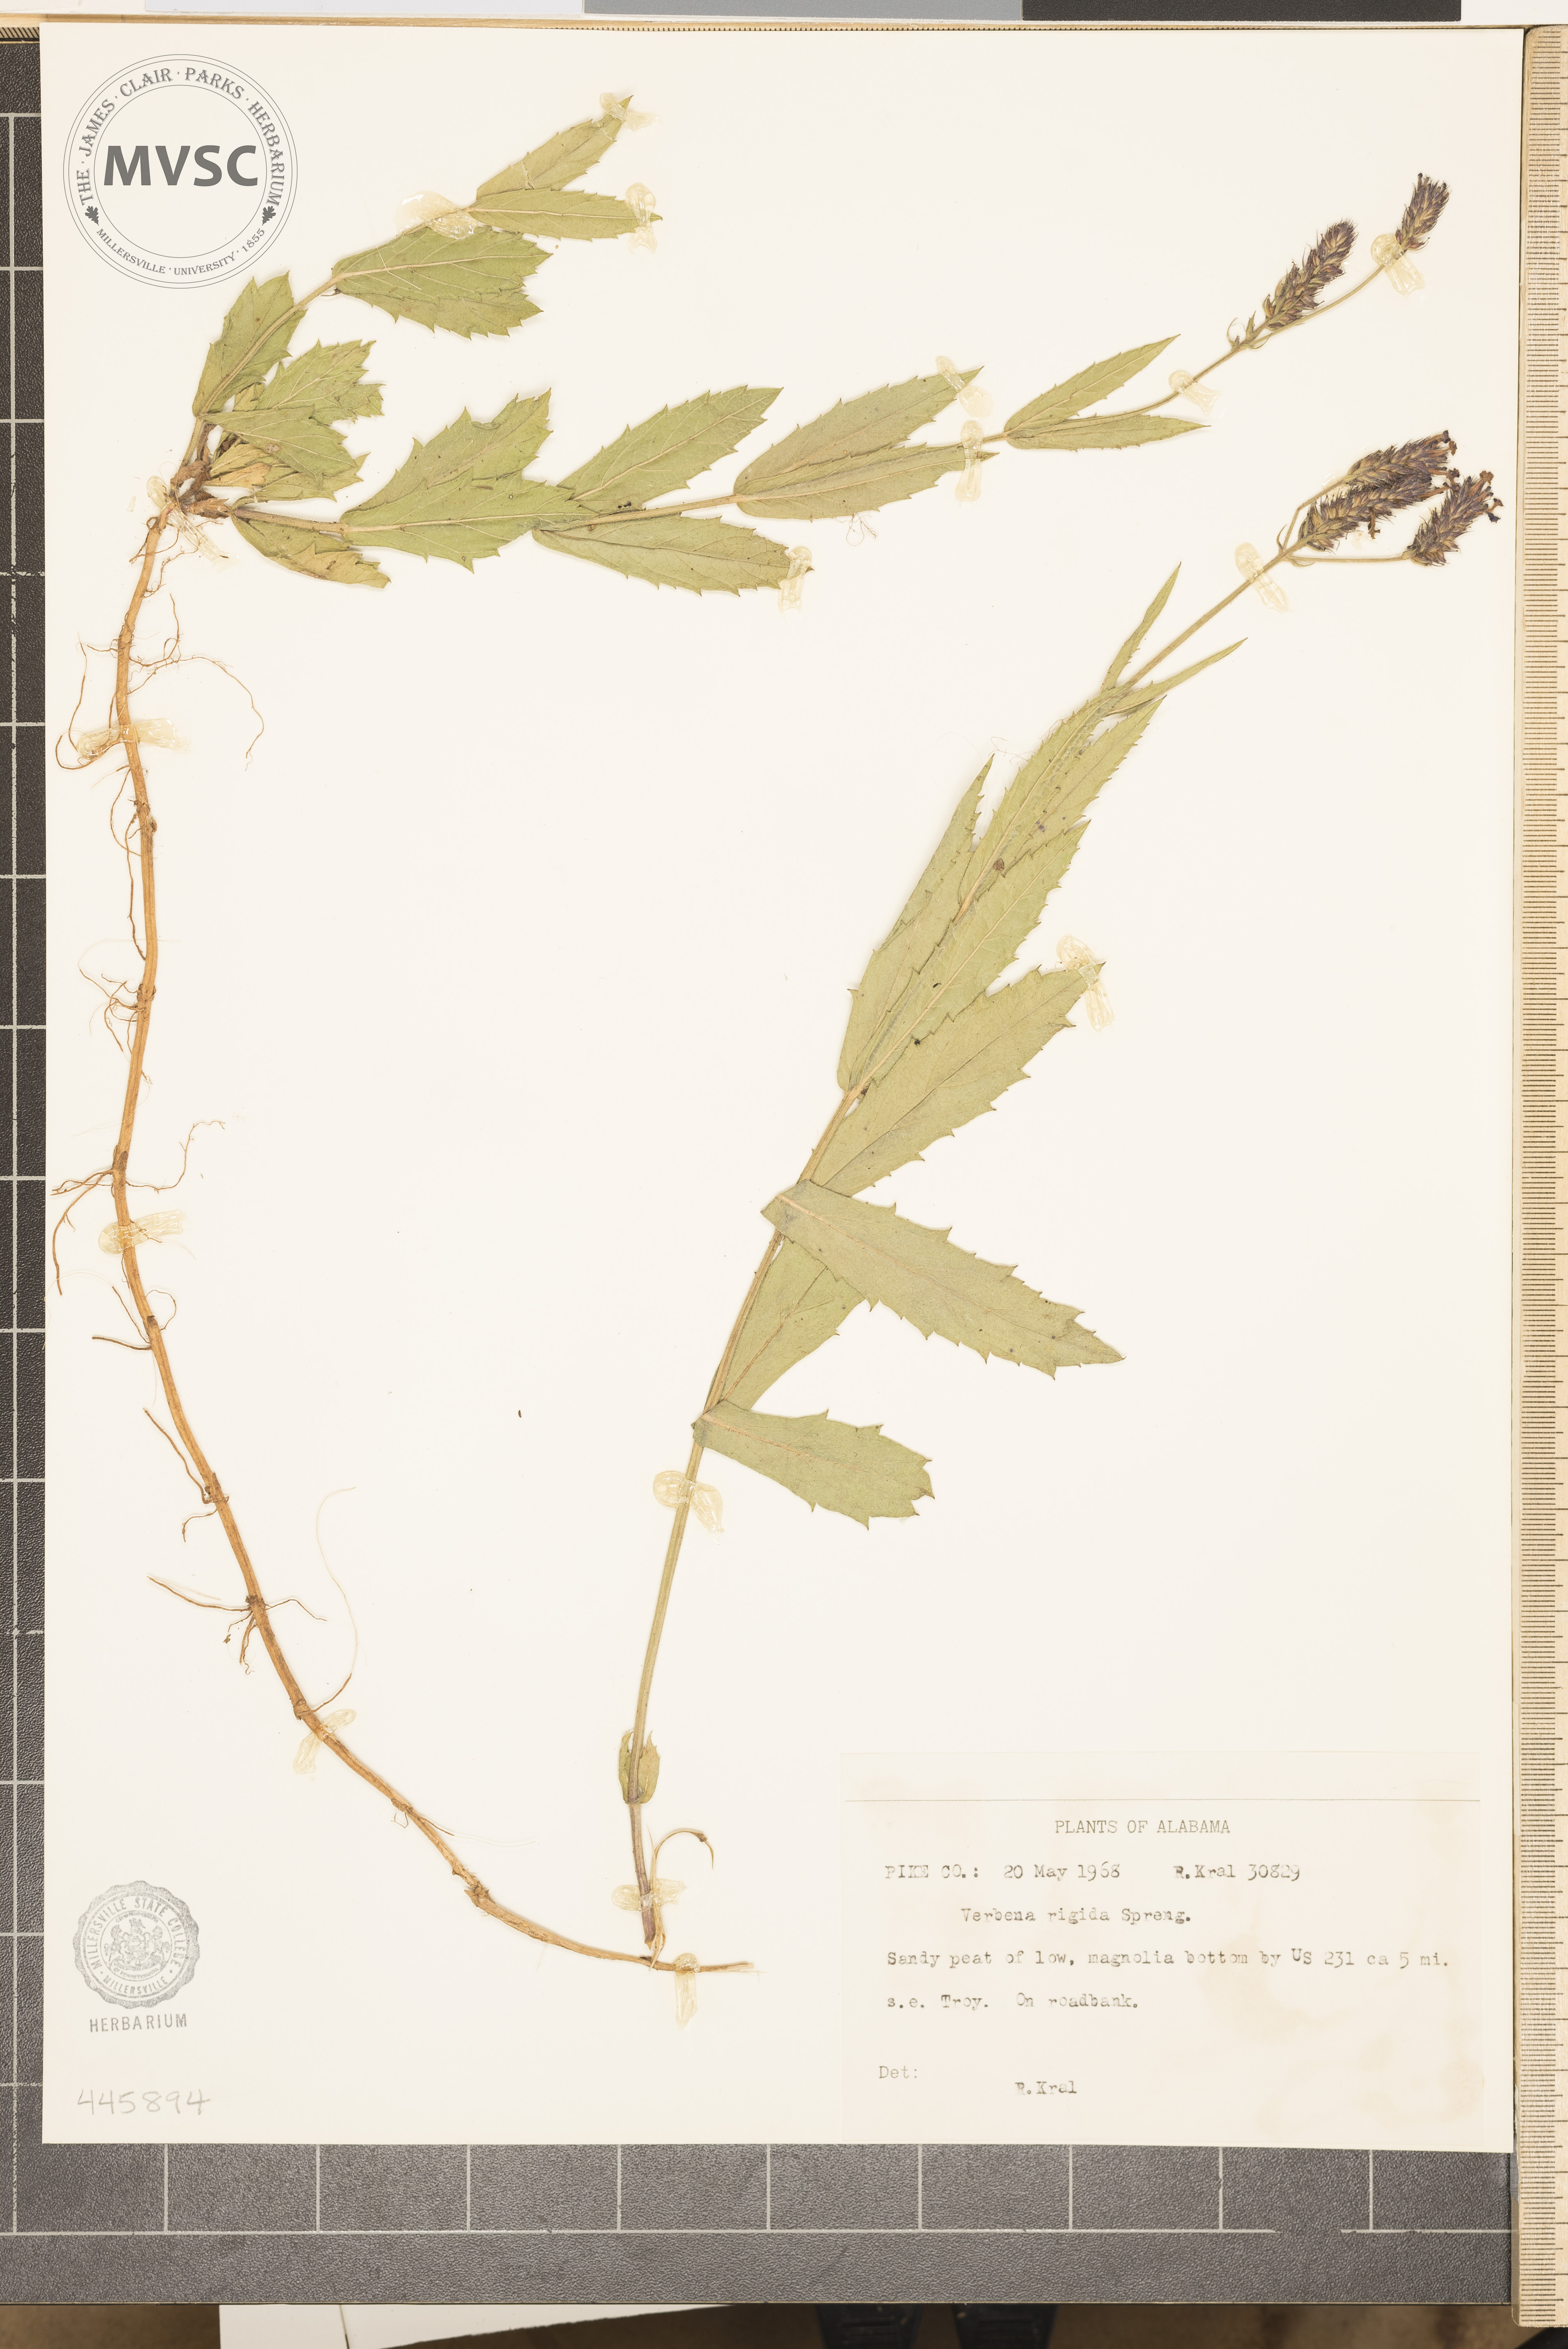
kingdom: Plantae
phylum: Tracheophyta
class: Magnoliopsida
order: Lamiales
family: Verbenaceae
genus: Verbena
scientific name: Verbena rigida
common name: Slender vervain
